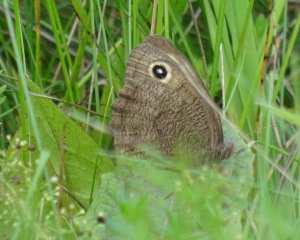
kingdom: Animalia
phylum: Arthropoda
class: Insecta
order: Lepidoptera
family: Nymphalidae
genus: Cercyonis
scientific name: Cercyonis pegala
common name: Common Wood-Nymph
